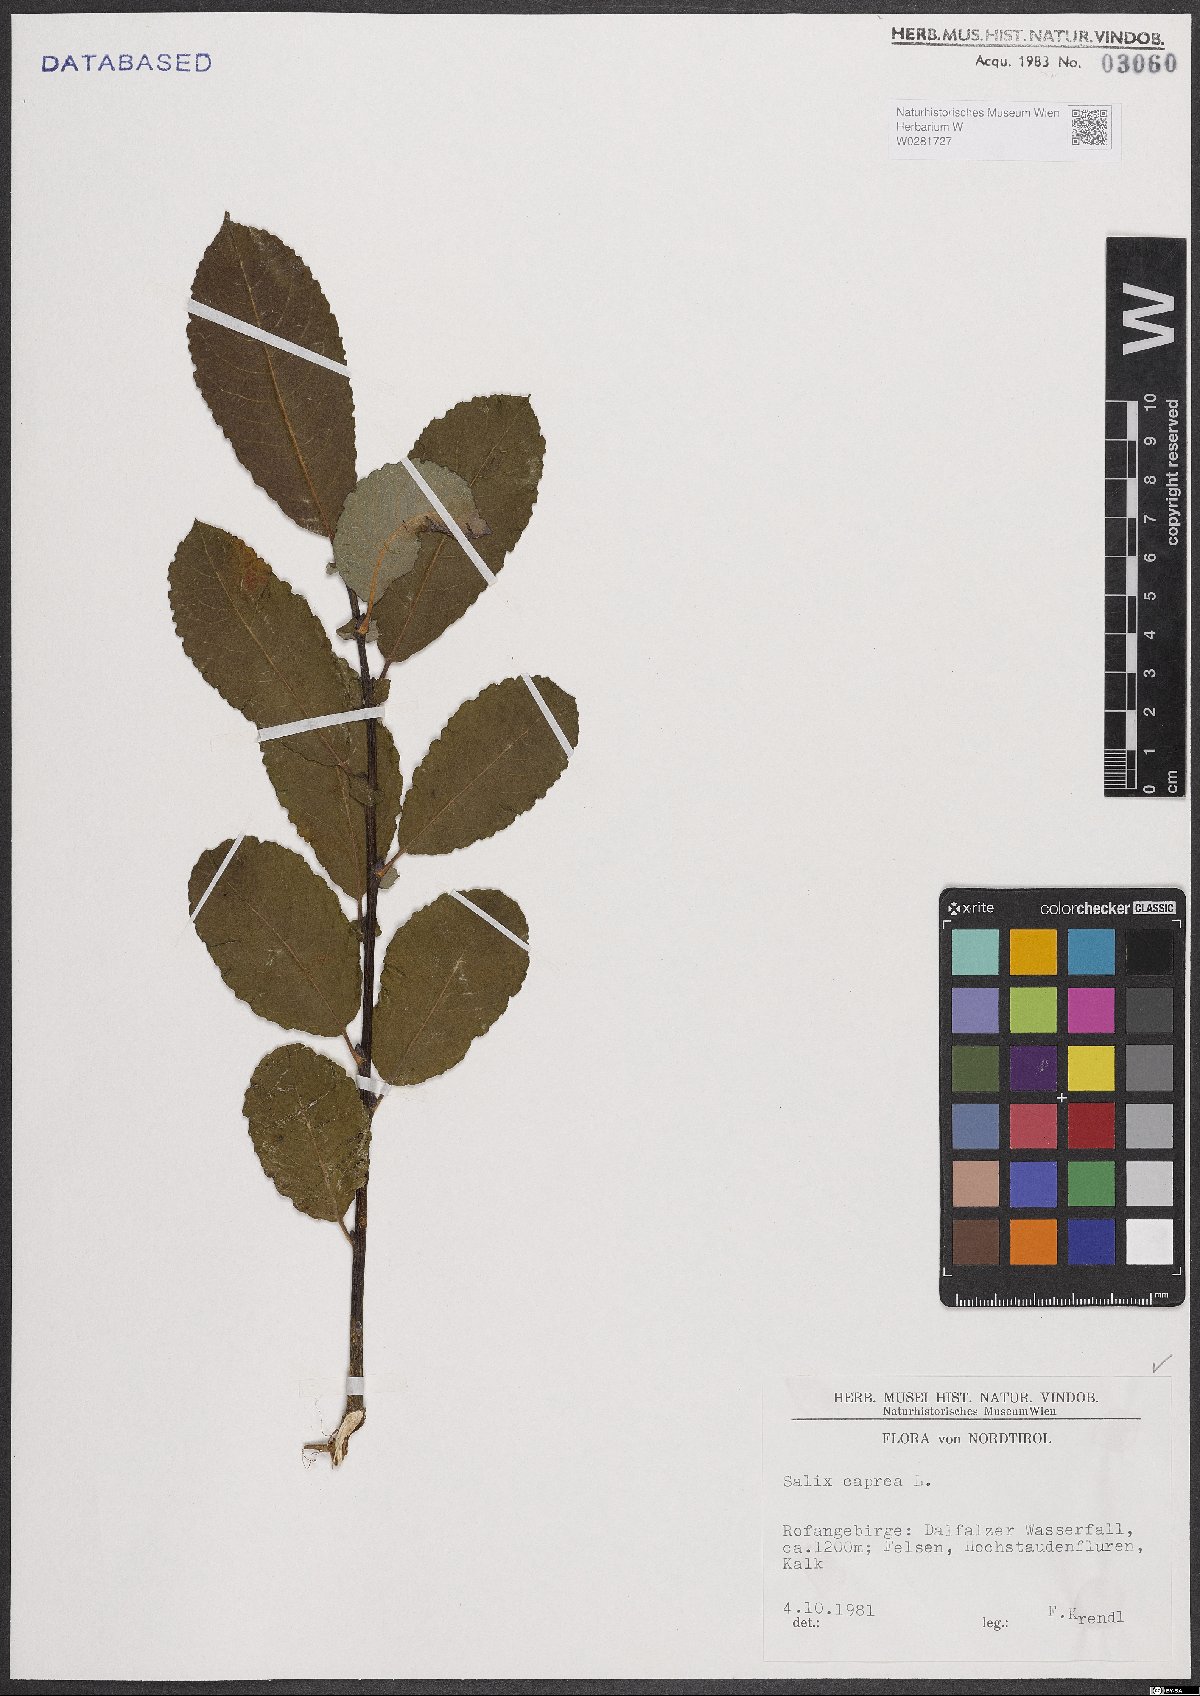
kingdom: Plantae
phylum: Tracheophyta
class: Magnoliopsida
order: Malpighiales
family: Salicaceae
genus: Salix
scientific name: Salix caprea
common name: Goat willow
